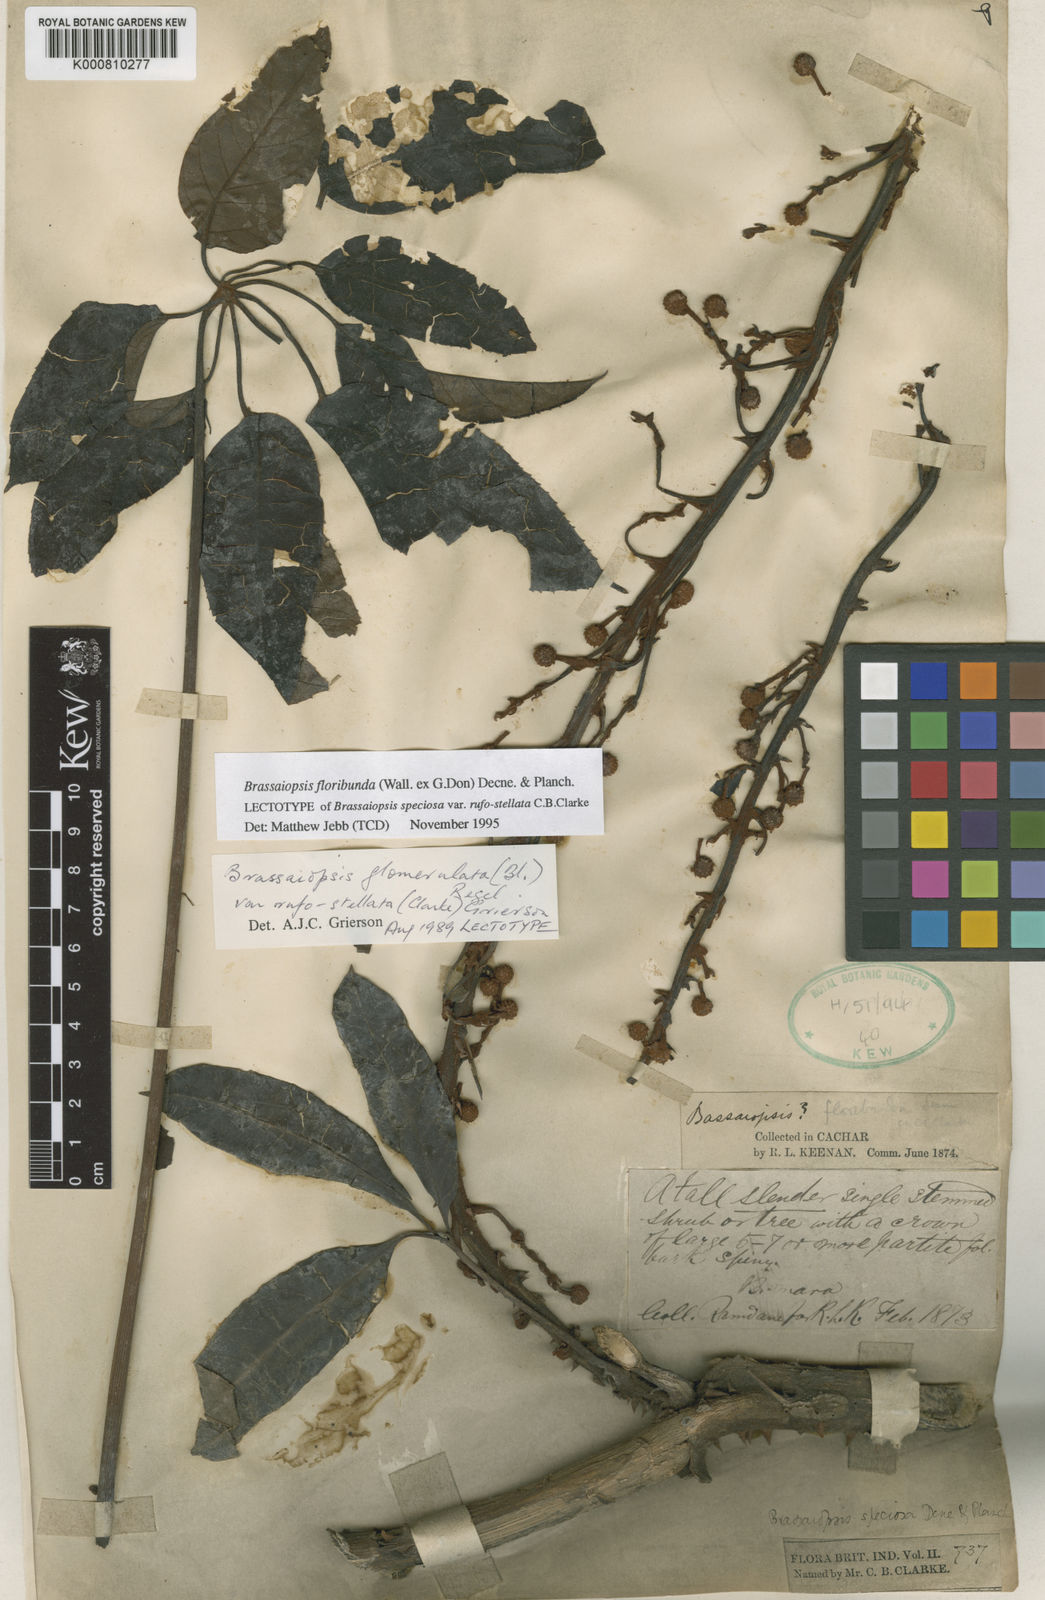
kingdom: Plantae
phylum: Tracheophyta
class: Magnoliopsida
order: Apiales
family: Araliaceae
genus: Brassaiopsis
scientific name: Brassaiopsis glomerulata
